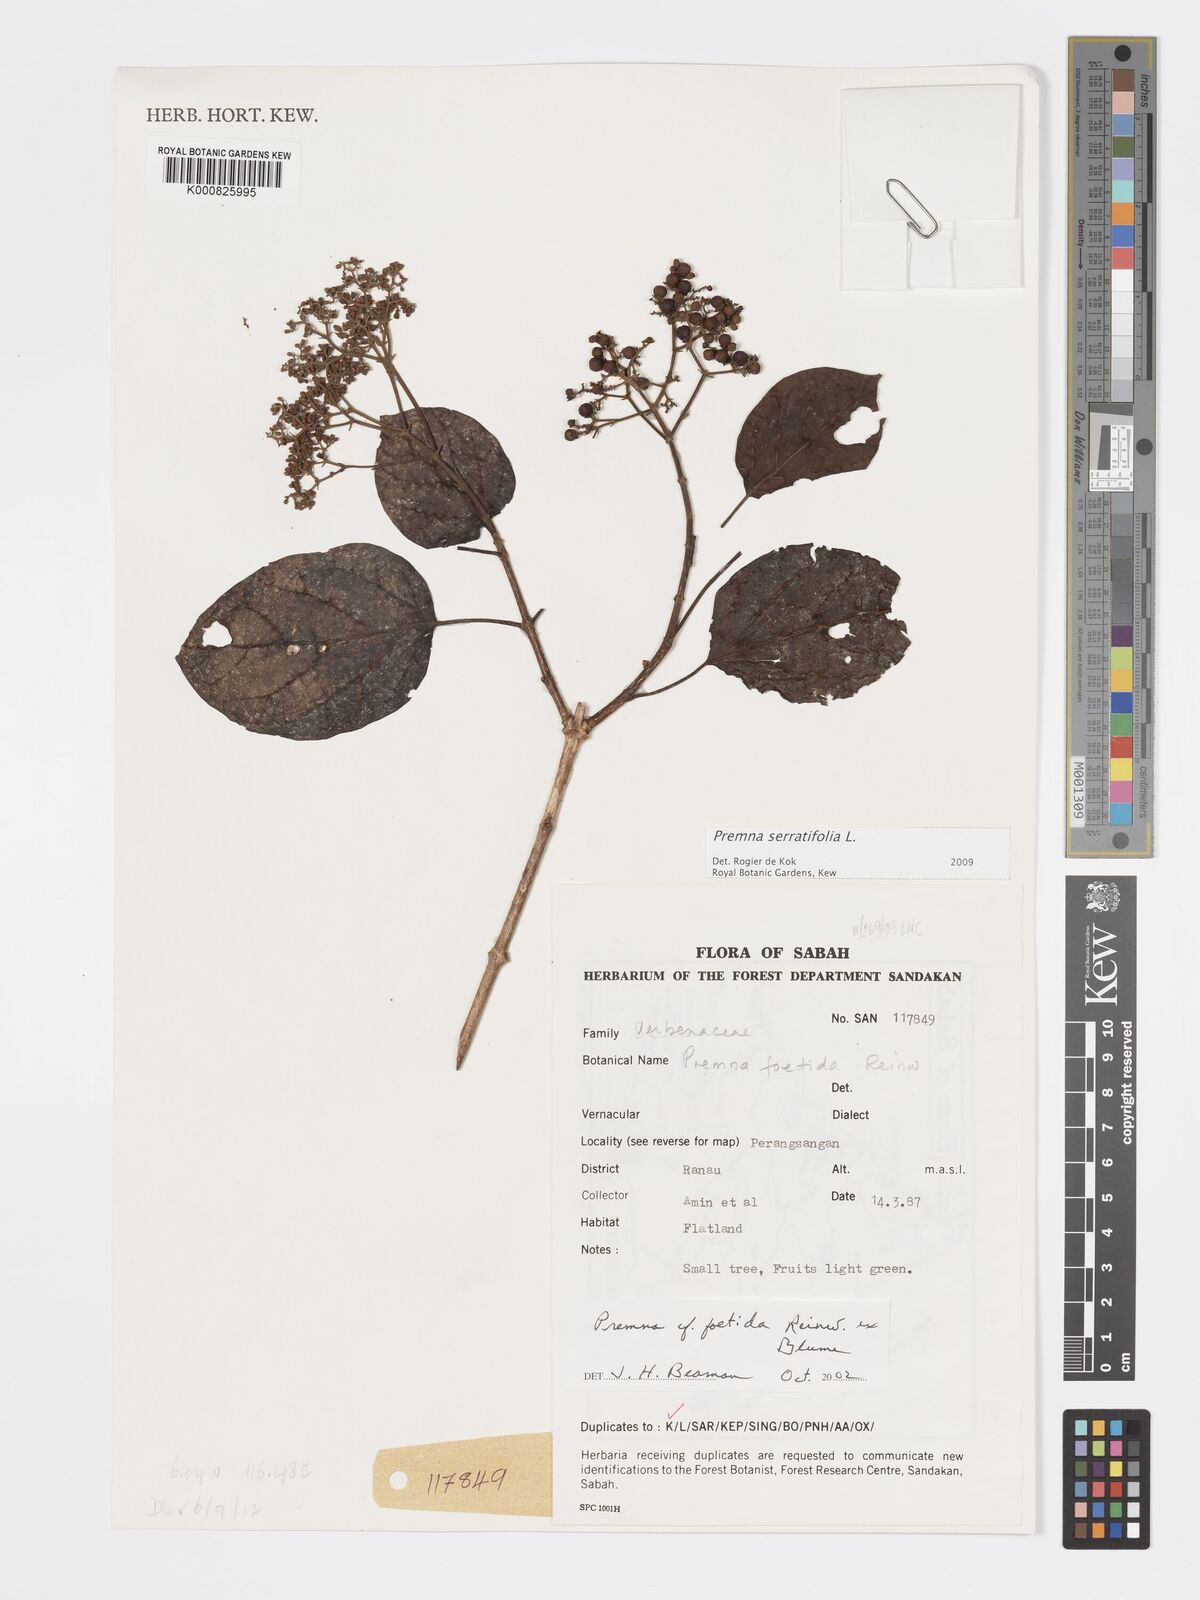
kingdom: Plantae
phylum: Tracheophyta
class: Magnoliopsida
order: Lamiales
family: Lamiaceae
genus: Premna
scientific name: Premna serratifolia
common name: Bastard guelder
